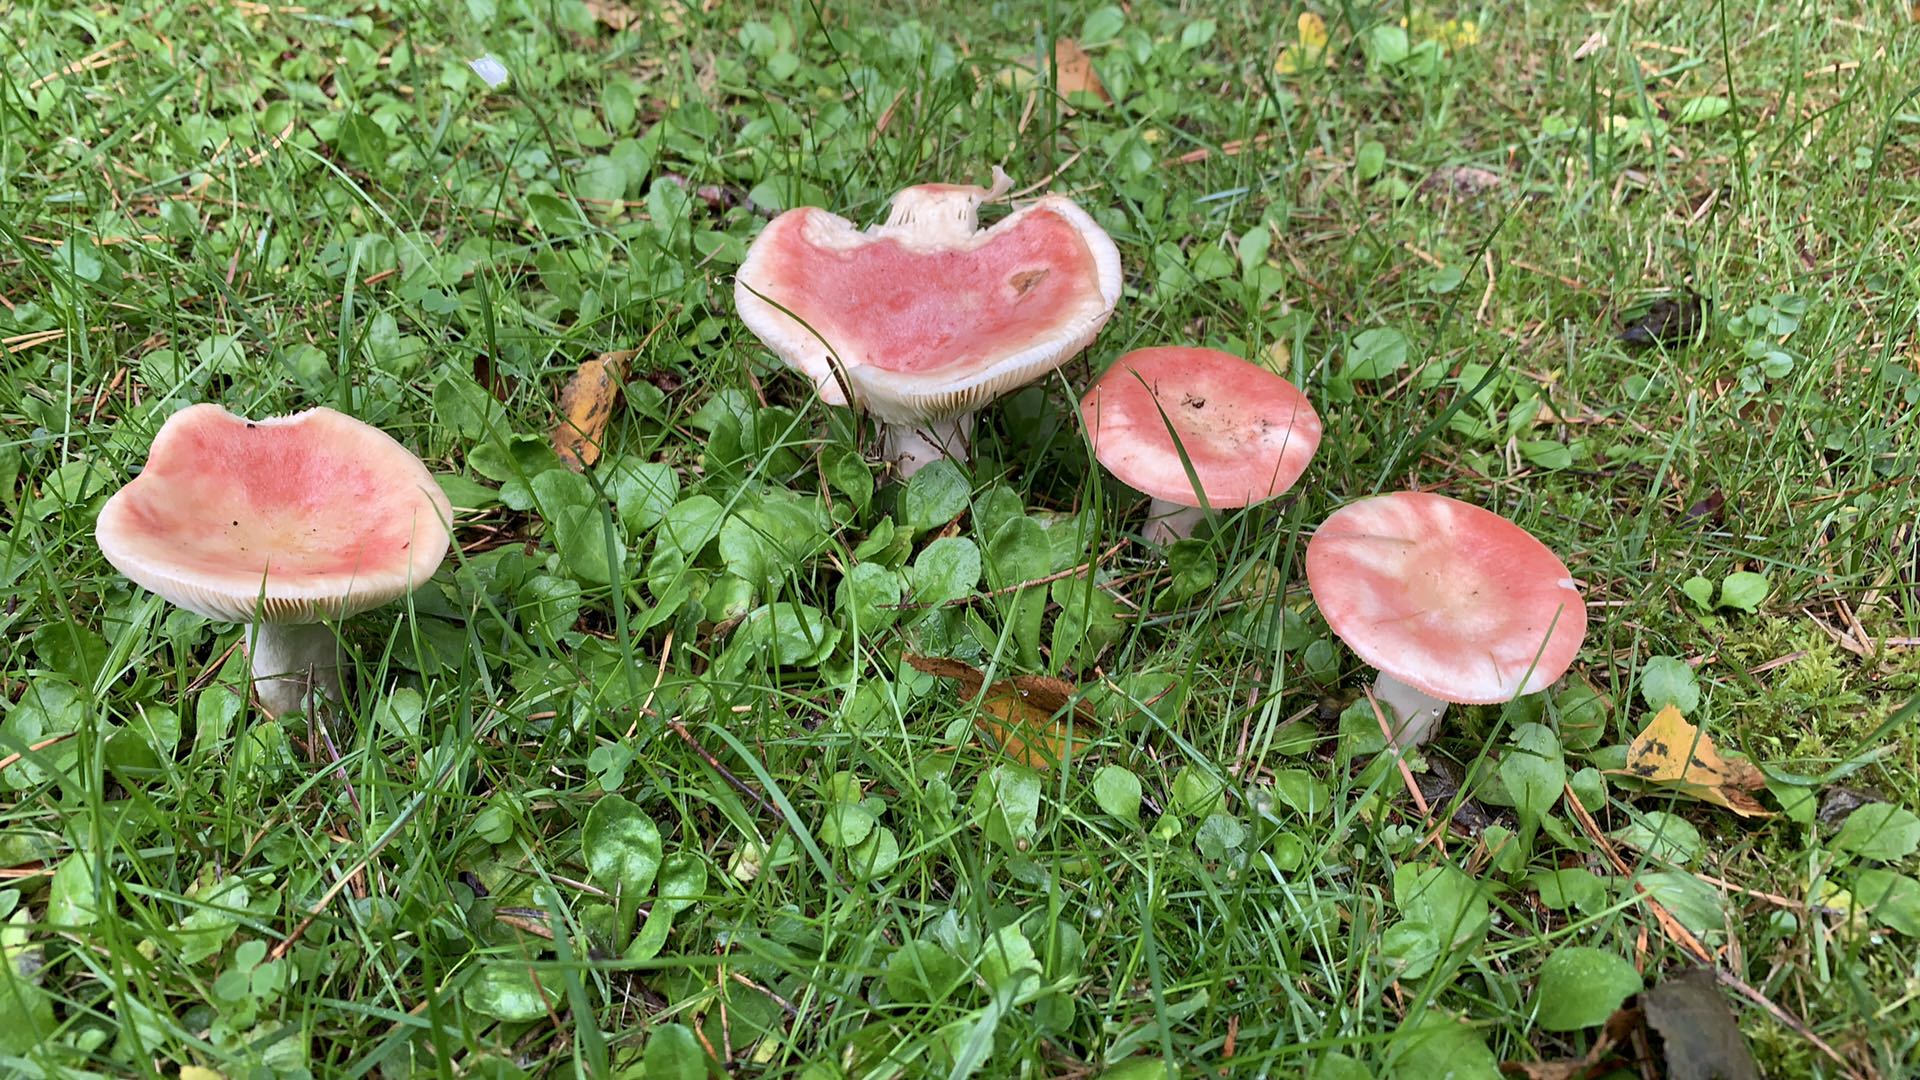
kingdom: Fungi
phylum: Basidiomycota
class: Agaricomycetes
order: Russulales
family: Russulaceae
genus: Russula
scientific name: Russula depallens
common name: falmende skørhat
